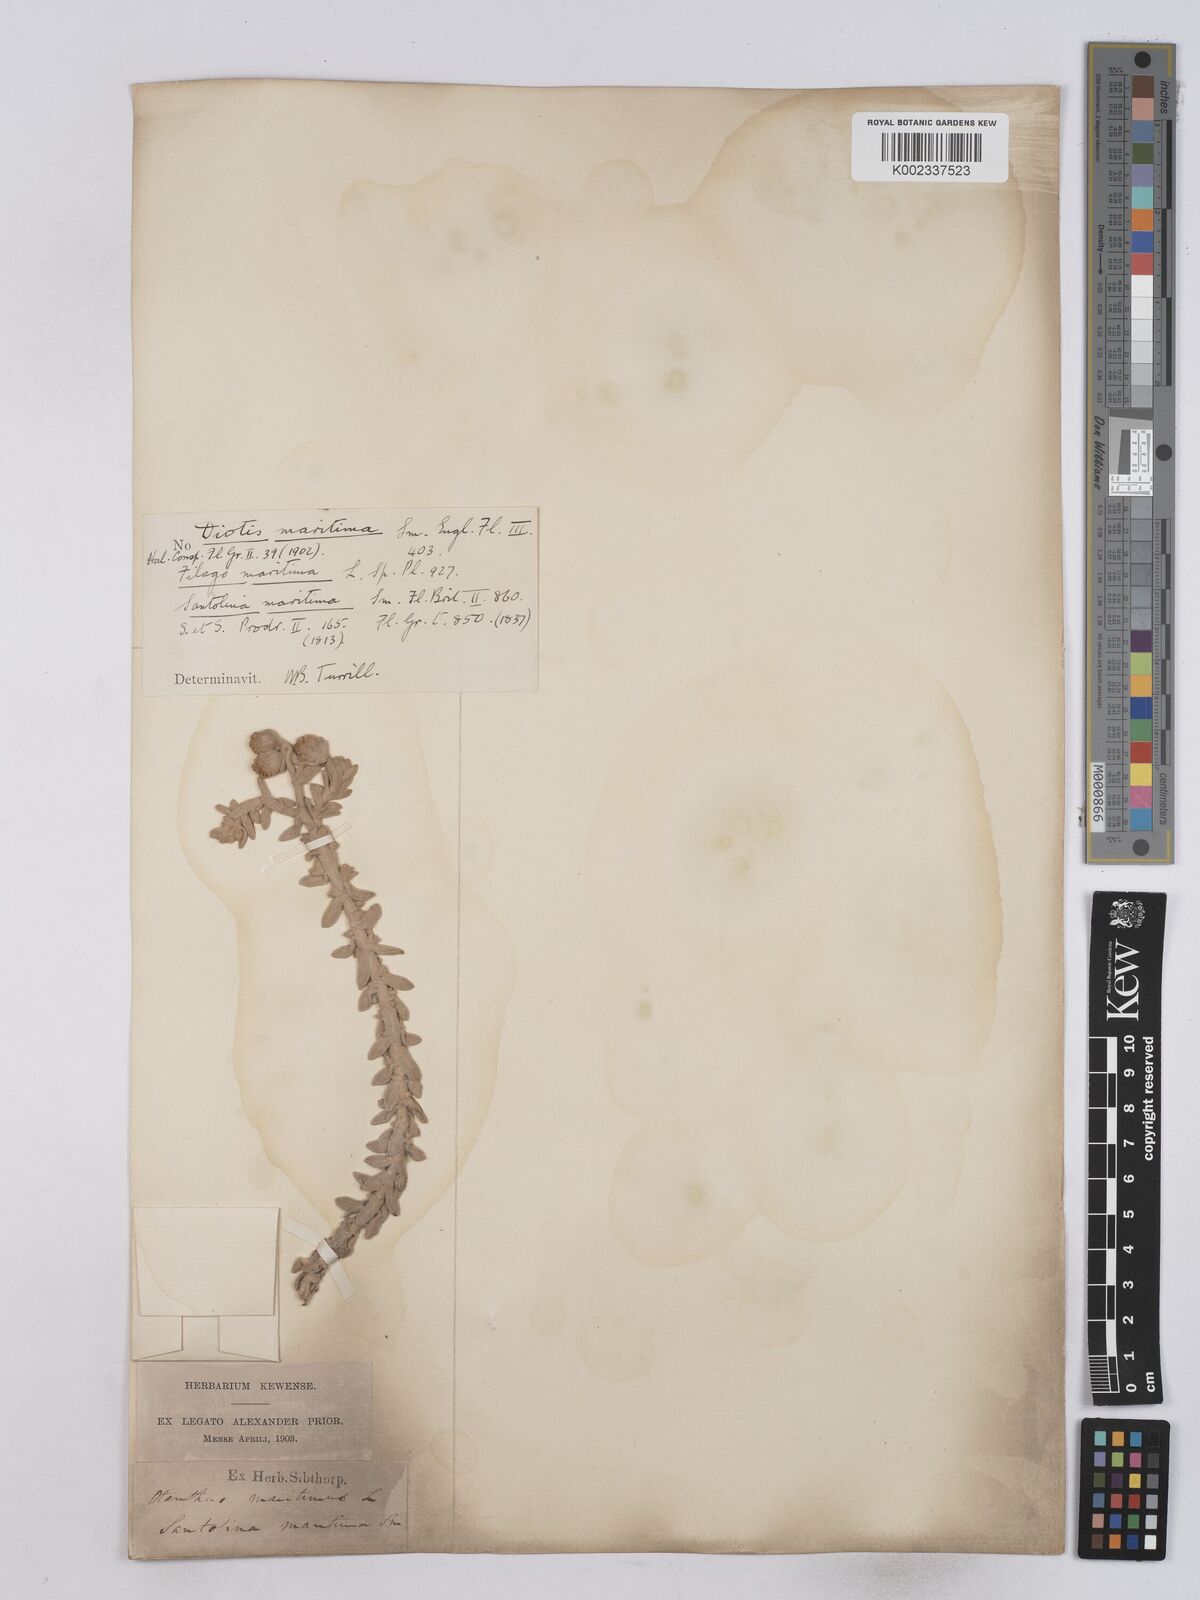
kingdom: Plantae
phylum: Tracheophyta
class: Magnoliopsida
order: Asterales
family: Asteraceae
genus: Achillea
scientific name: Achillea maritima
